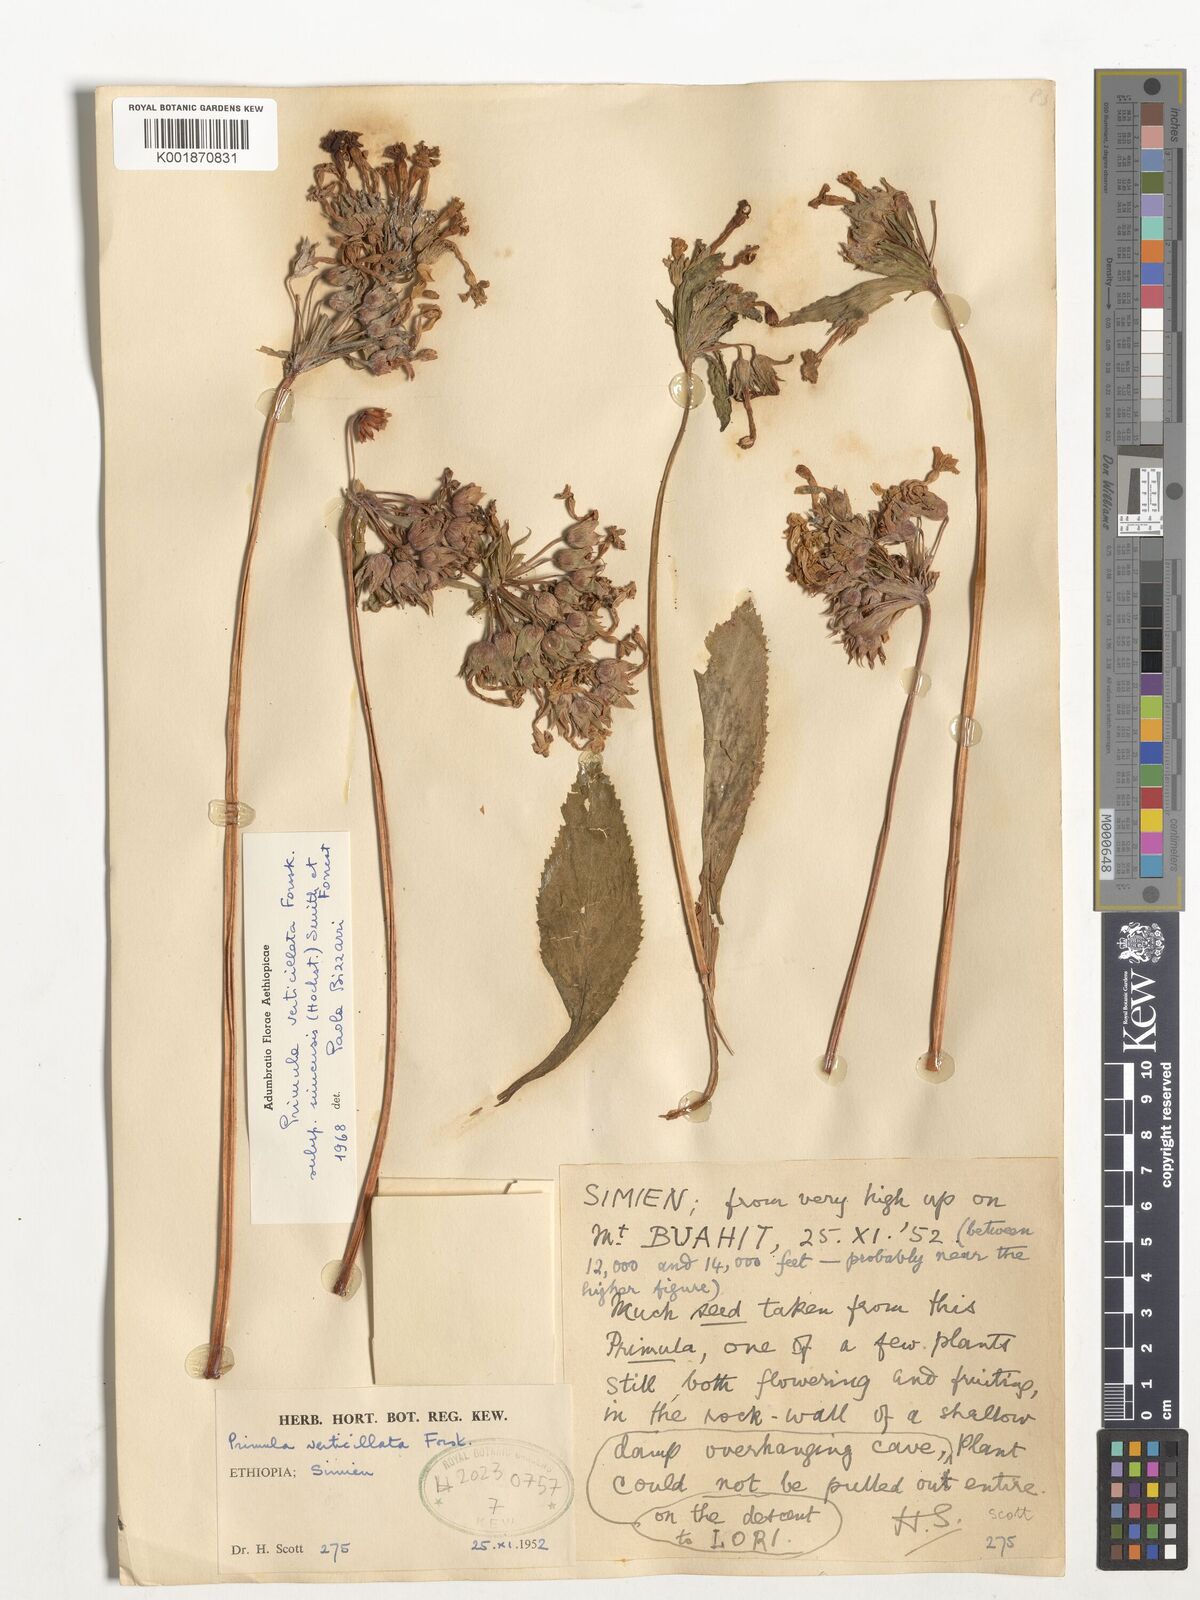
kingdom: Plantae
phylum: Tracheophyta
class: Magnoliopsida
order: Ericales
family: Primulaceae
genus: Evotrochis
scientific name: Evotrochis simensis
